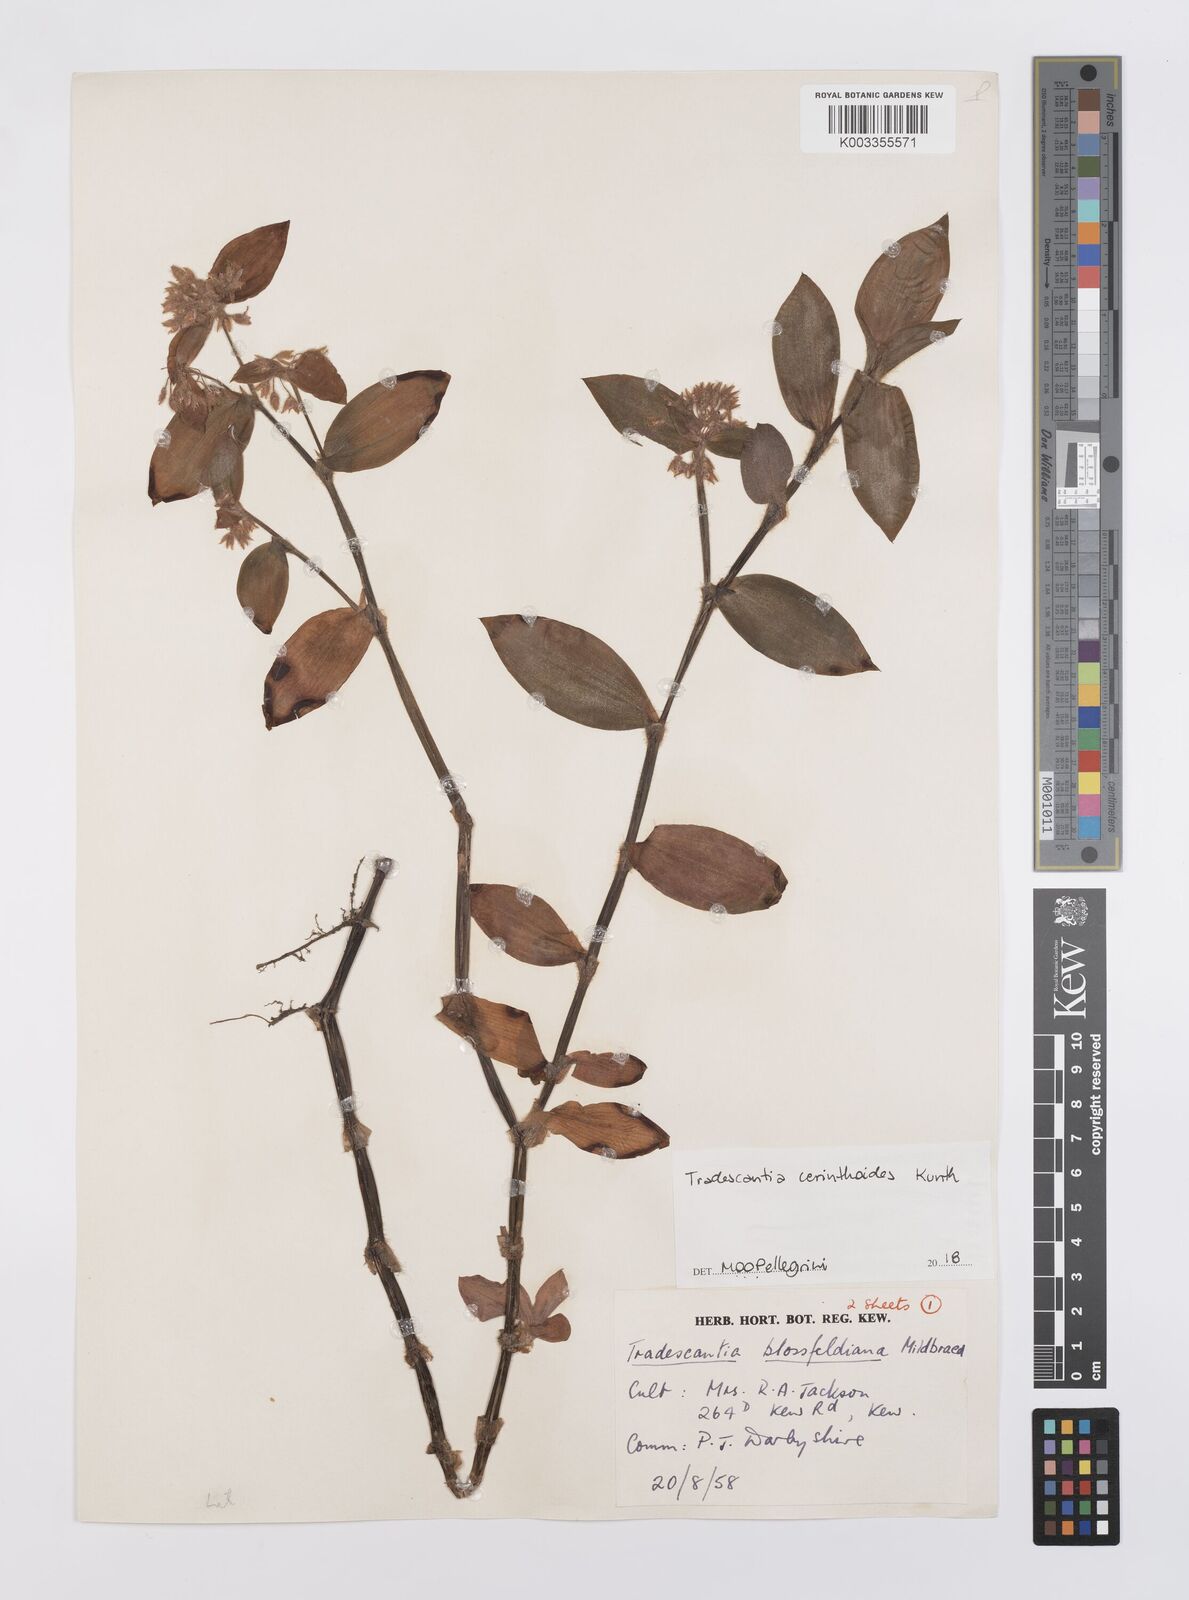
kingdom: Plantae
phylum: Tracheophyta
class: Liliopsida
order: Commelinales
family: Commelinaceae
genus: Tradescantia
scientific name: Tradescantia cerinthoides
